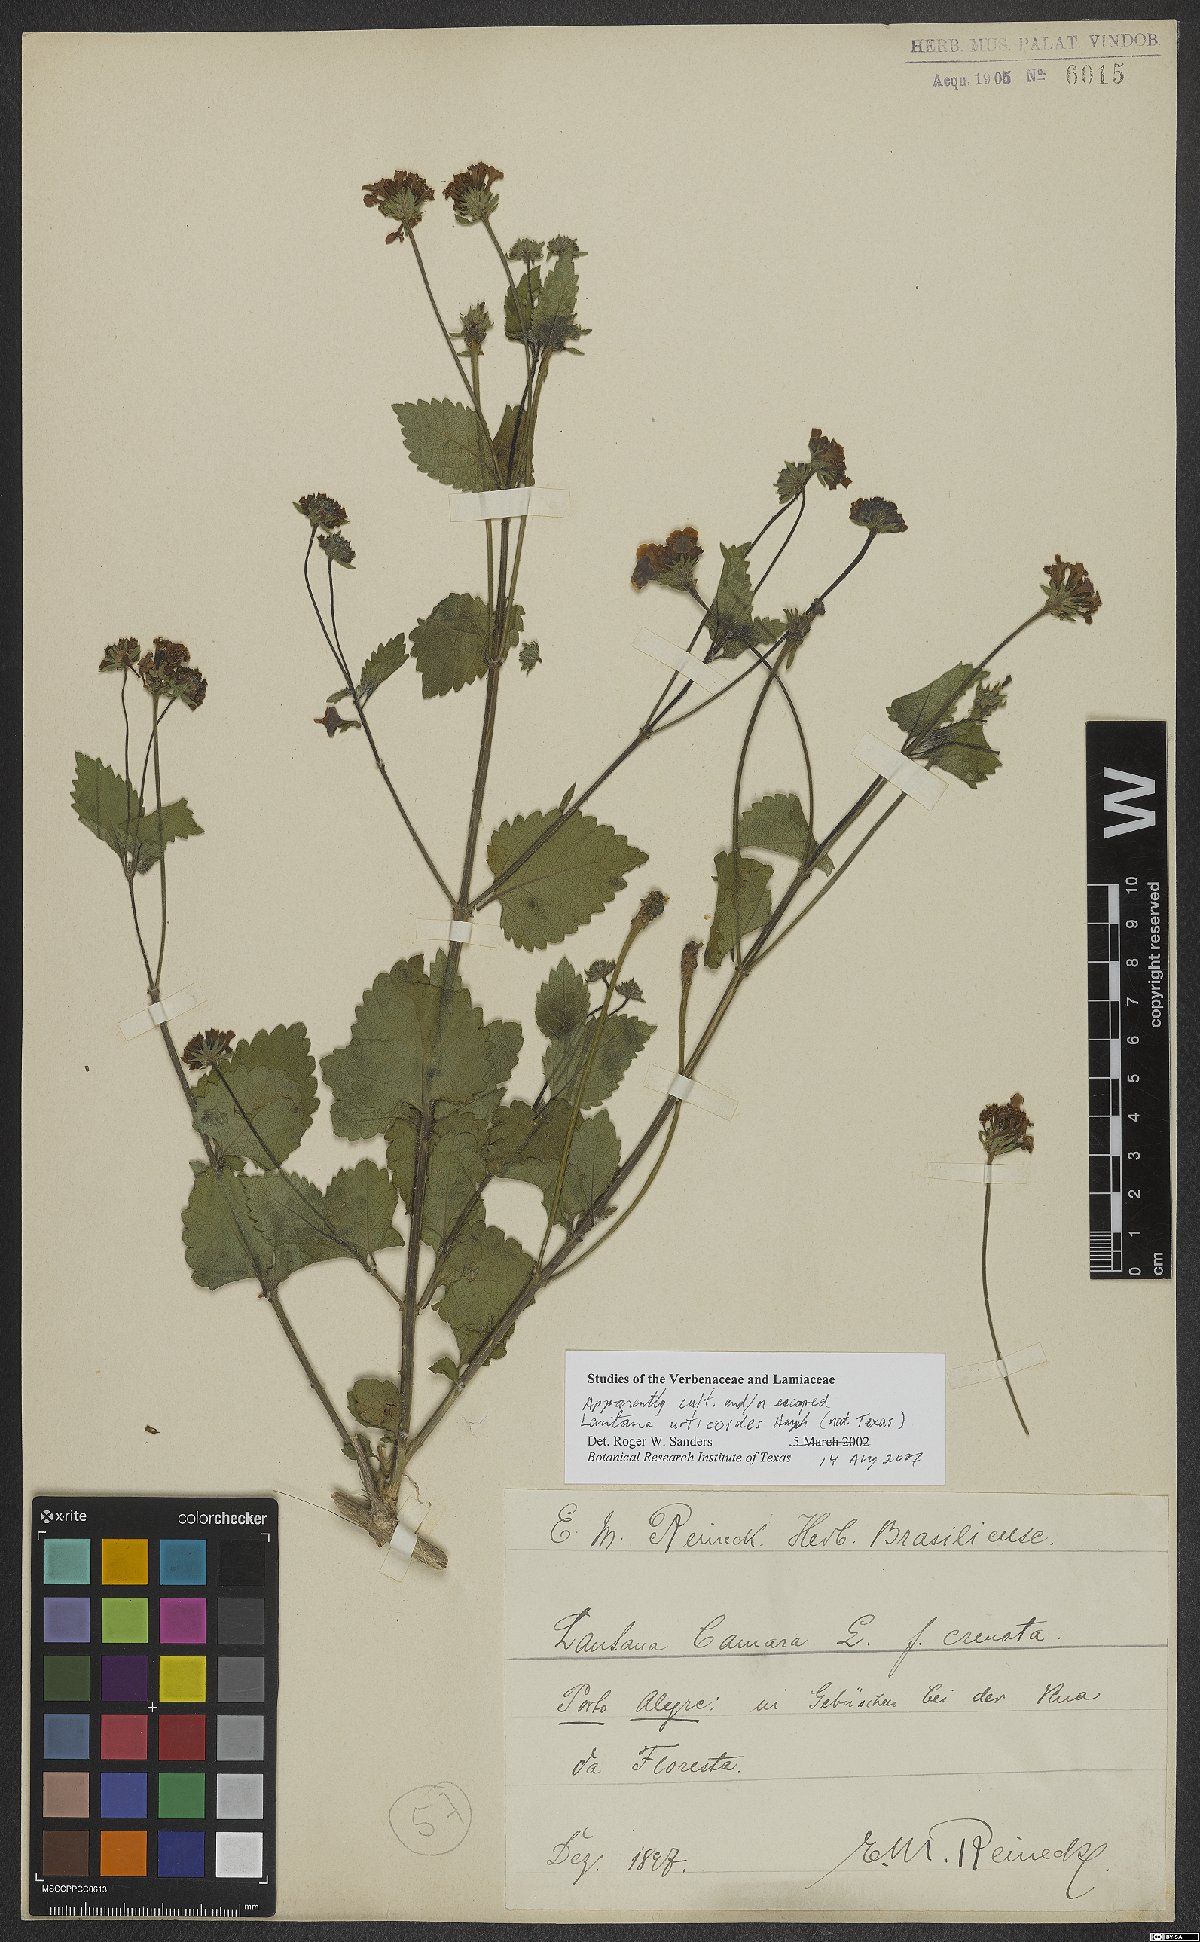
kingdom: Plantae
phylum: Tracheophyta
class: Magnoliopsida
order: Lamiales
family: Verbenaceae
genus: Lantana
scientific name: Lantana urticoides
